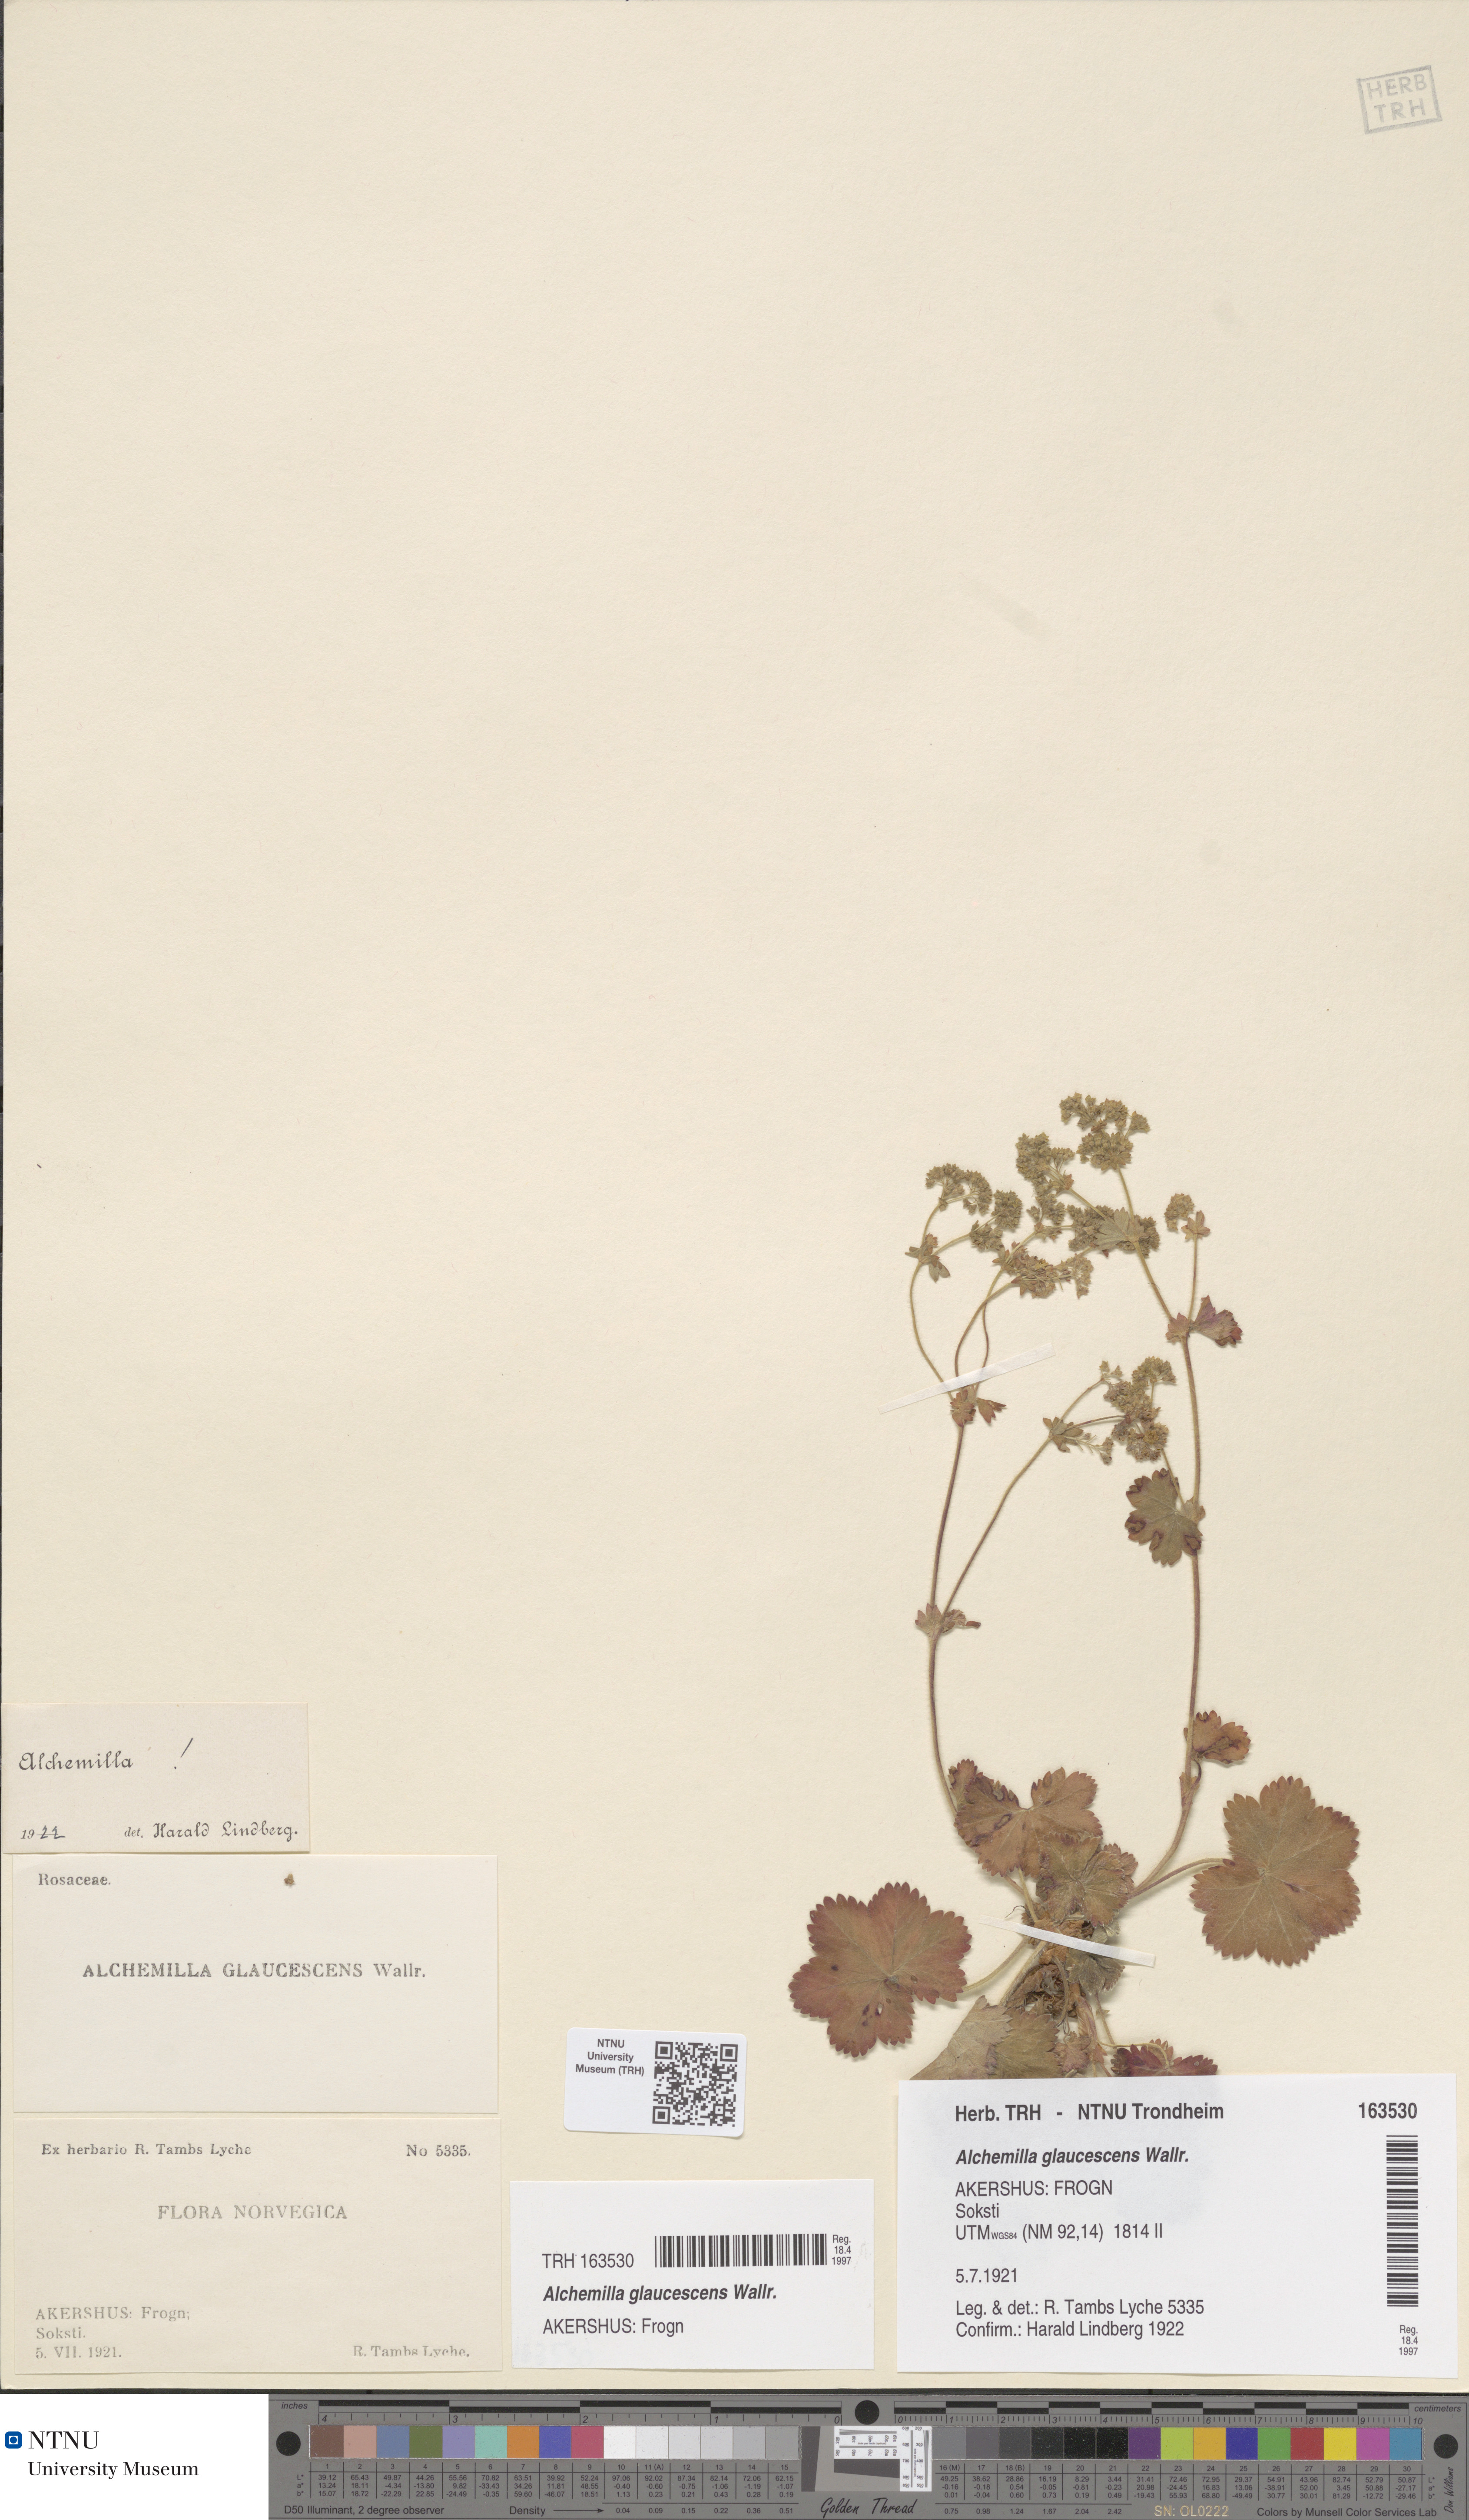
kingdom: Plantae
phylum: Tracheophyta
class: Magnoliopsida
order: Rosales
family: Rosaceae
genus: Alchemilla
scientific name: Alchemilla glaucescens
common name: Silky lady's mantle
